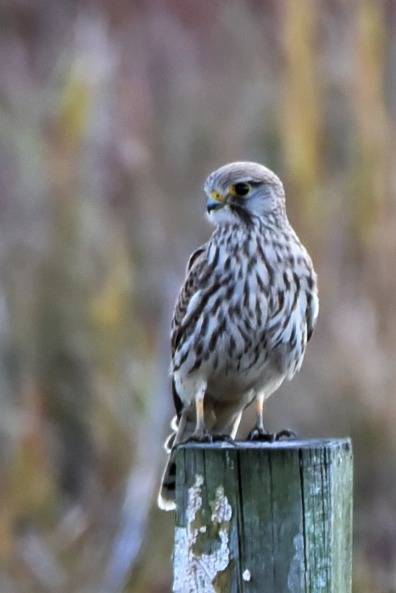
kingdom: Animalia
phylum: Chordata
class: Aves
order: Falconiformes
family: Falconidae
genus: Falco
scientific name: Falco tinnunculus
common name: Tårnfalk
